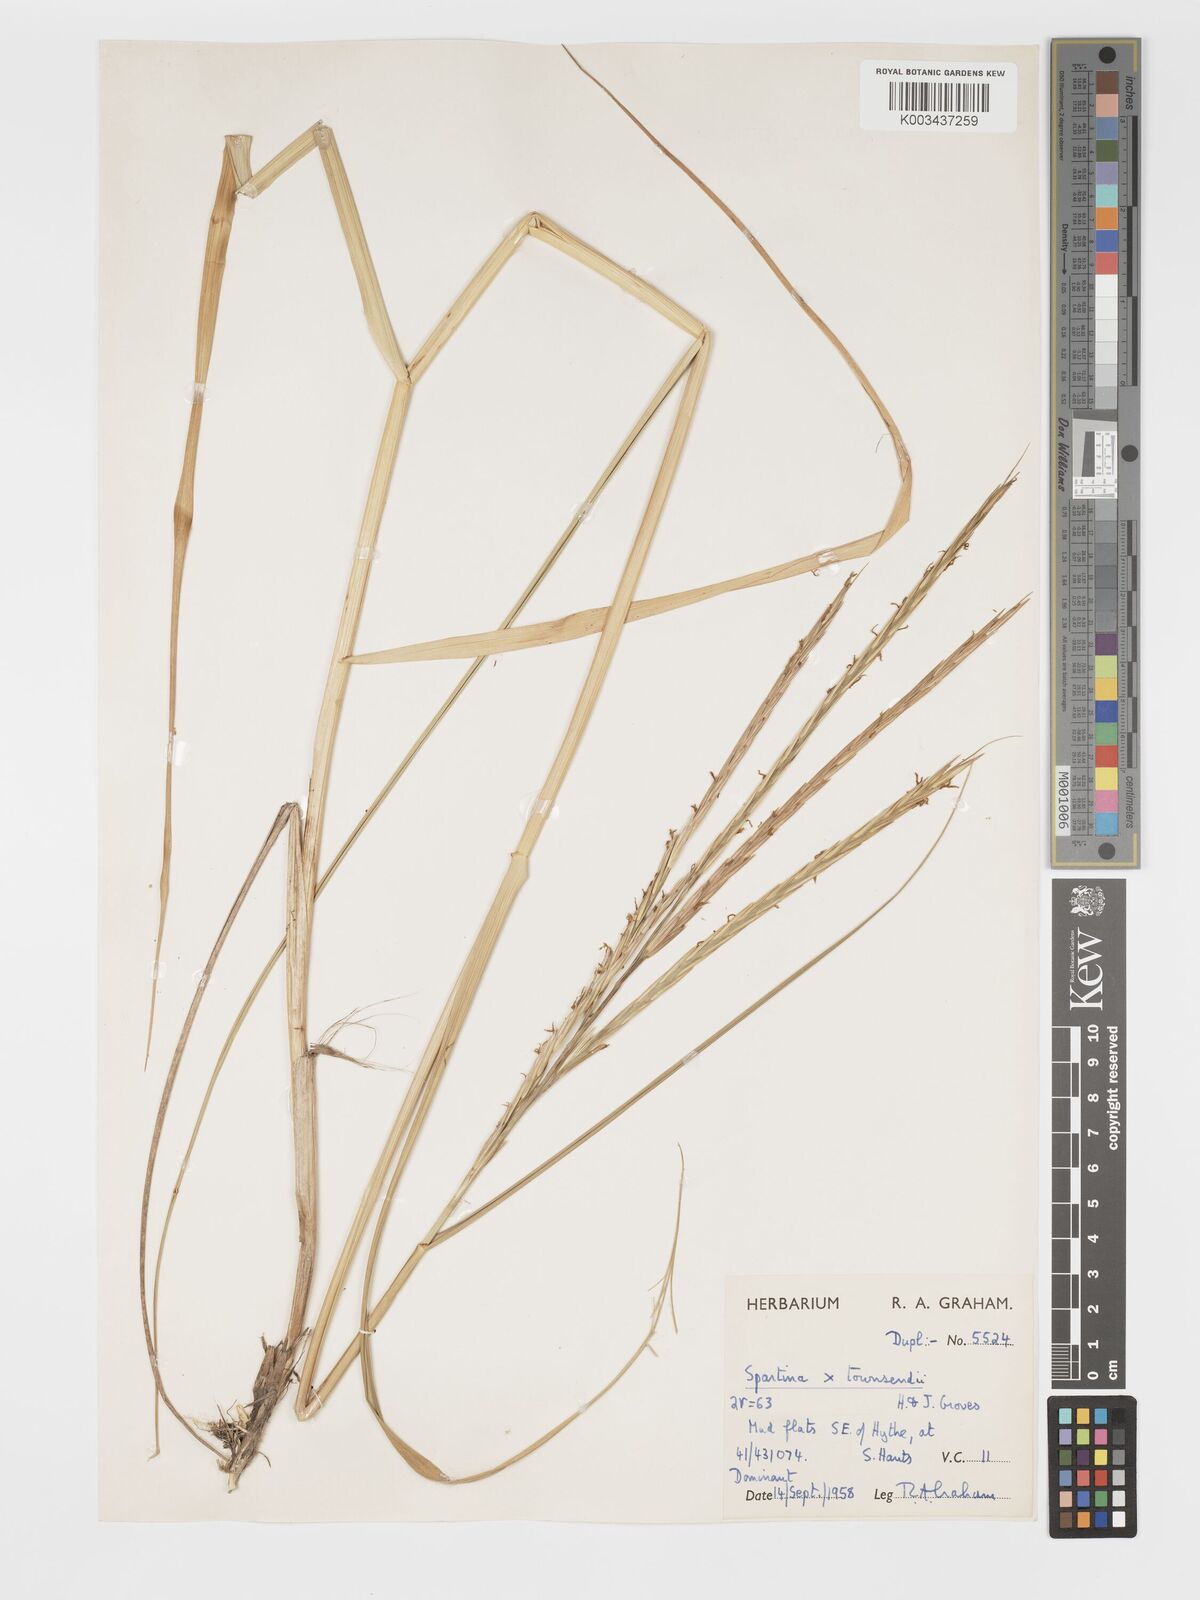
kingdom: Plantae
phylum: Tracheophyta
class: Liliopsida
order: Poales
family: Poaceae
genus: Sporobolus
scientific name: Sporobolus townsendii
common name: Townsend's cordgrass
